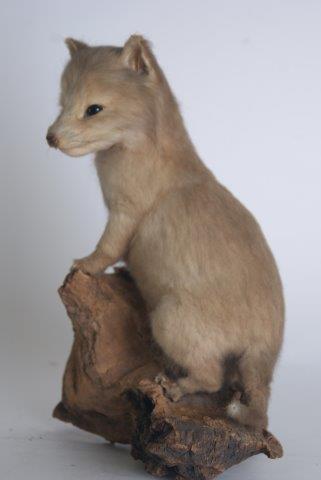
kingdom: Animalia
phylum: Chordata
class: Mammalia
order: Carnivora
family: Canidae
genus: Vulpes
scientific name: Vulpes vulpes
